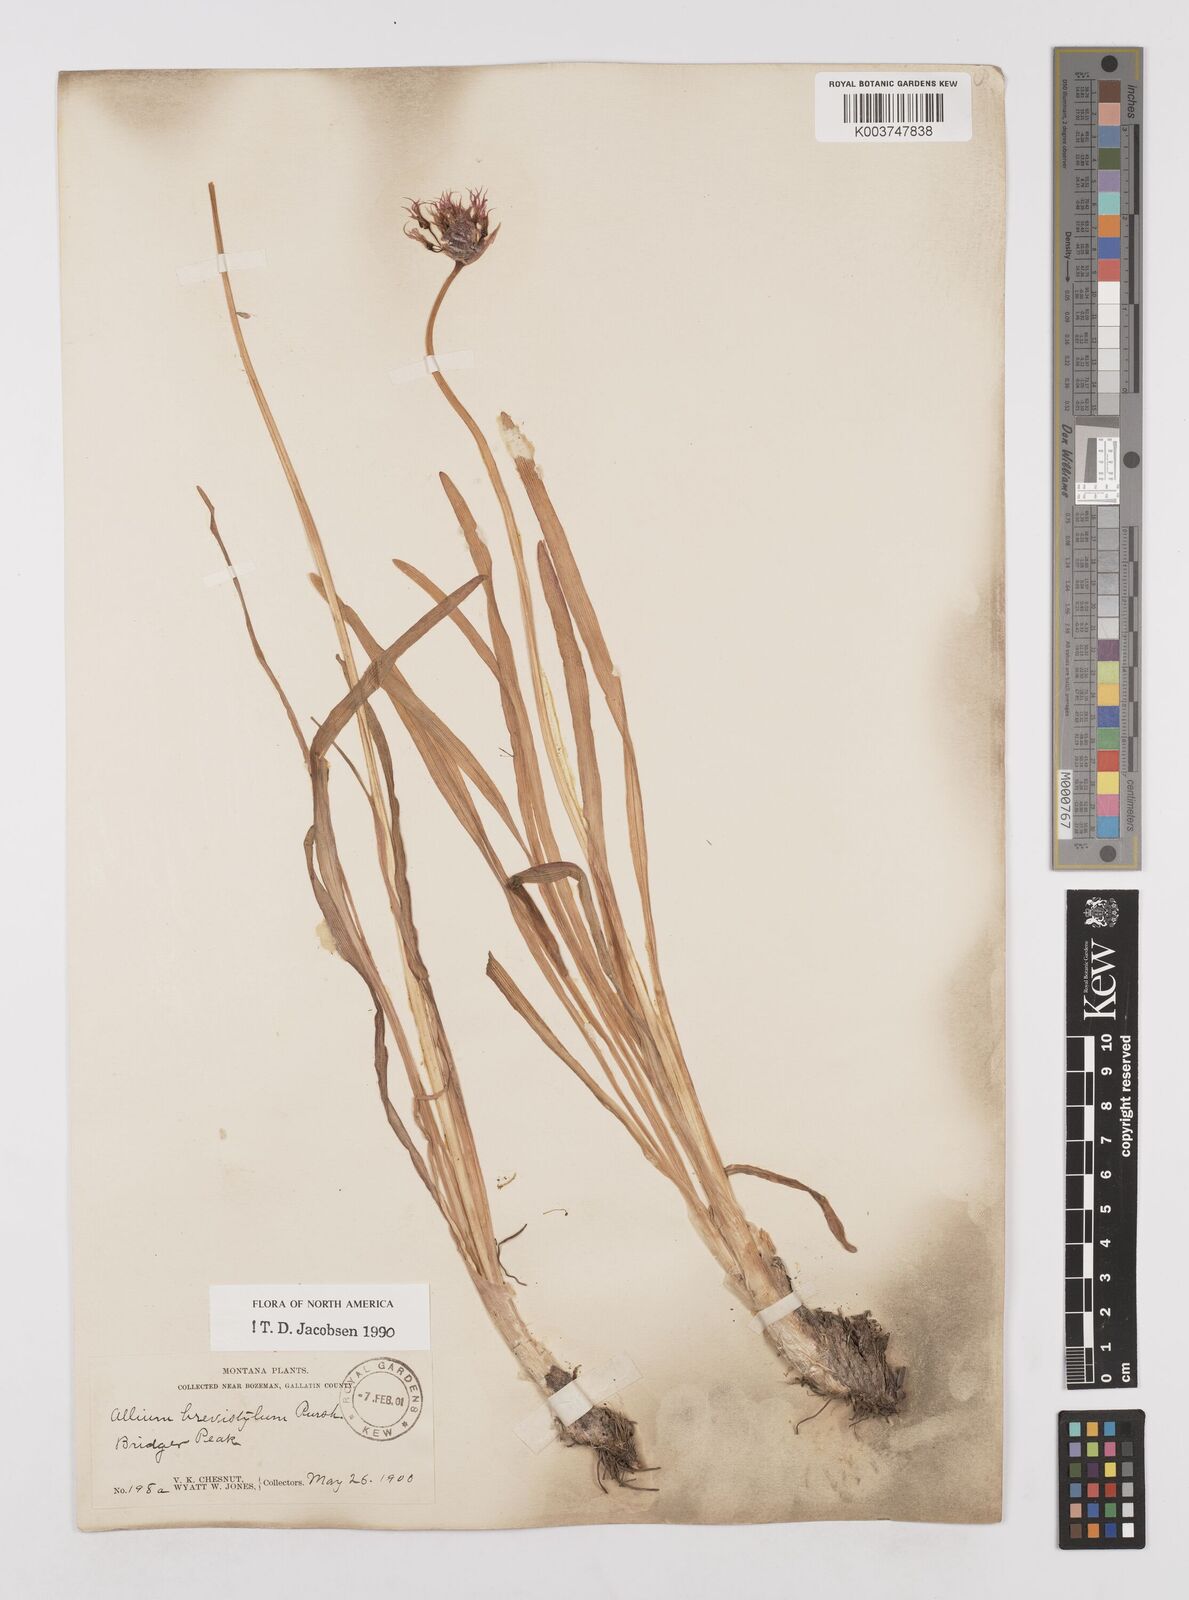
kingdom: Plantae
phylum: Tracheophyta
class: Liliopsida
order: Asparagales
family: Amaryllidaceae
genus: Allium
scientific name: Allium brevistylum
